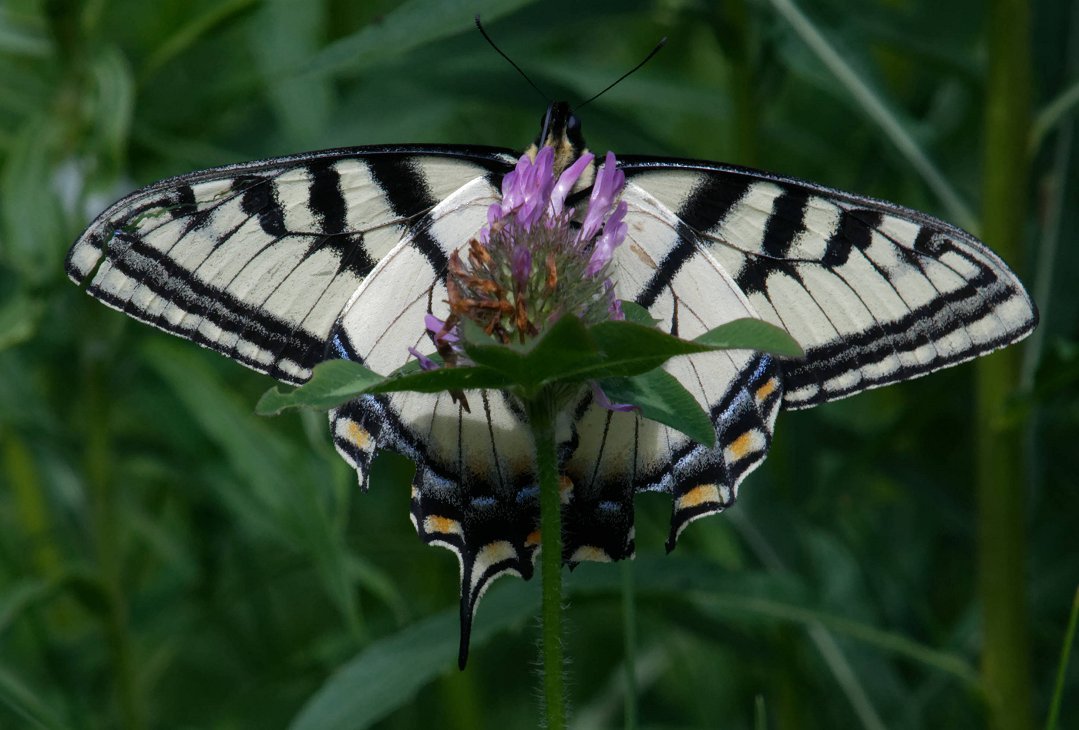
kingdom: Animalia
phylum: Arthropoda
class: Insecta
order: Lepidoptera
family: Papilionidae
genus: Pterourus
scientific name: Pterourus canadensis
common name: Canadian Tiger Swallowtail
